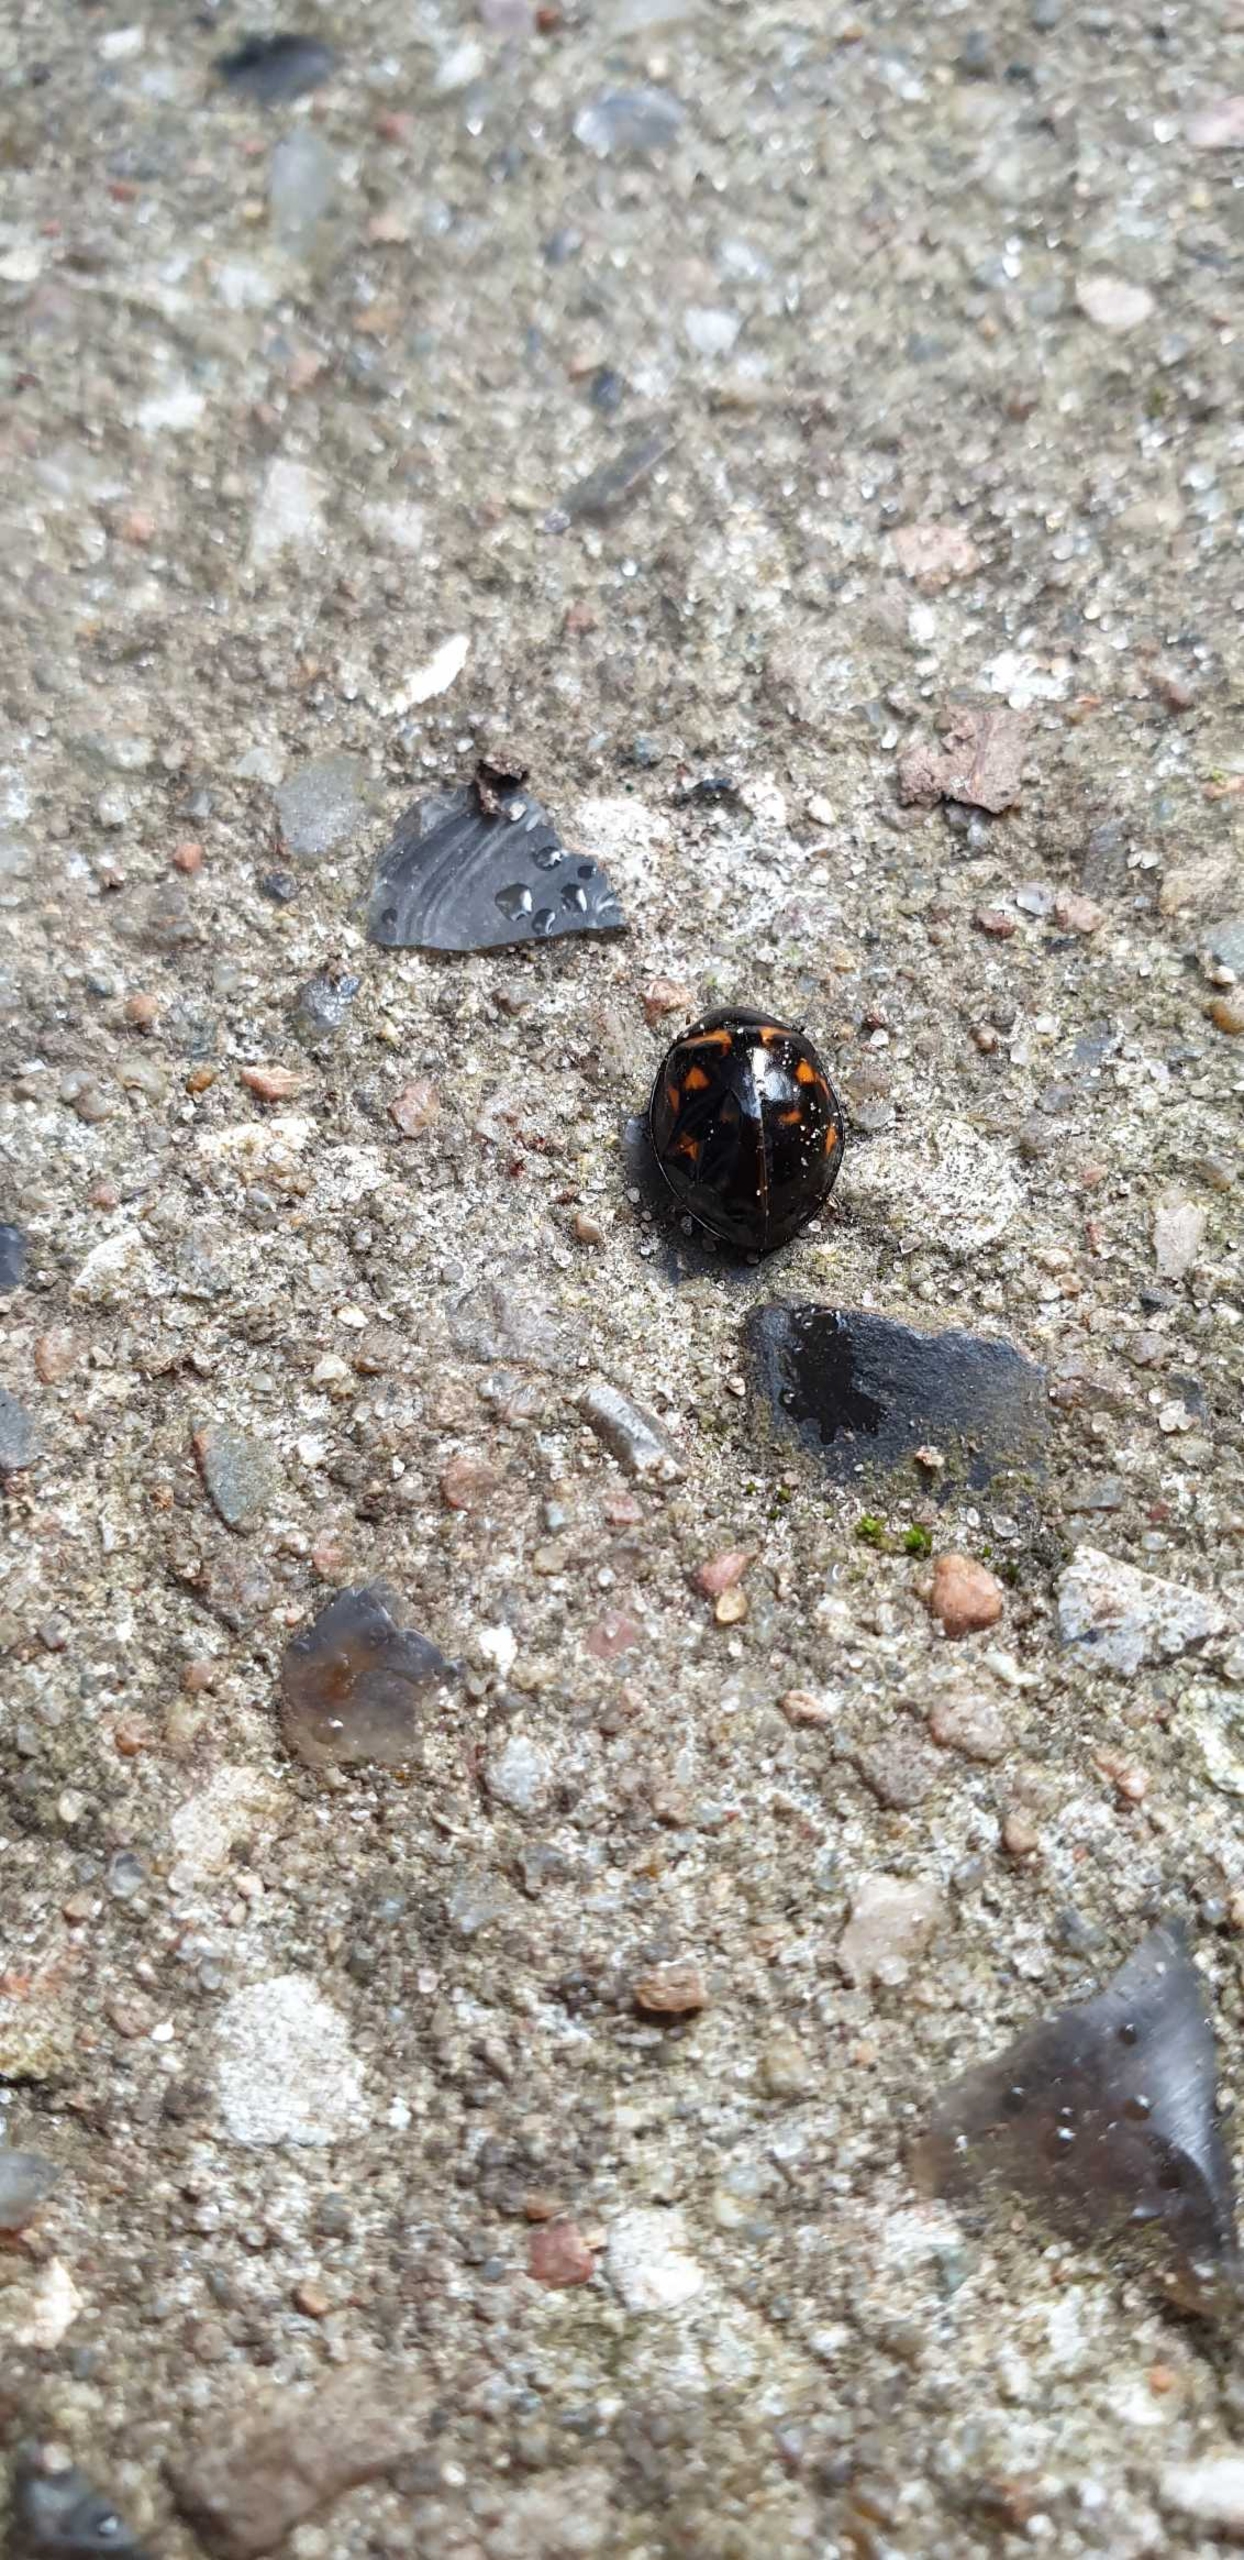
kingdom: Animalia
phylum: Arthropoda
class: Insecta
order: Coleoptera
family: Coccinellidae
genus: Harmonia
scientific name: Harmonia axyridis
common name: Harlekinmariehøne
